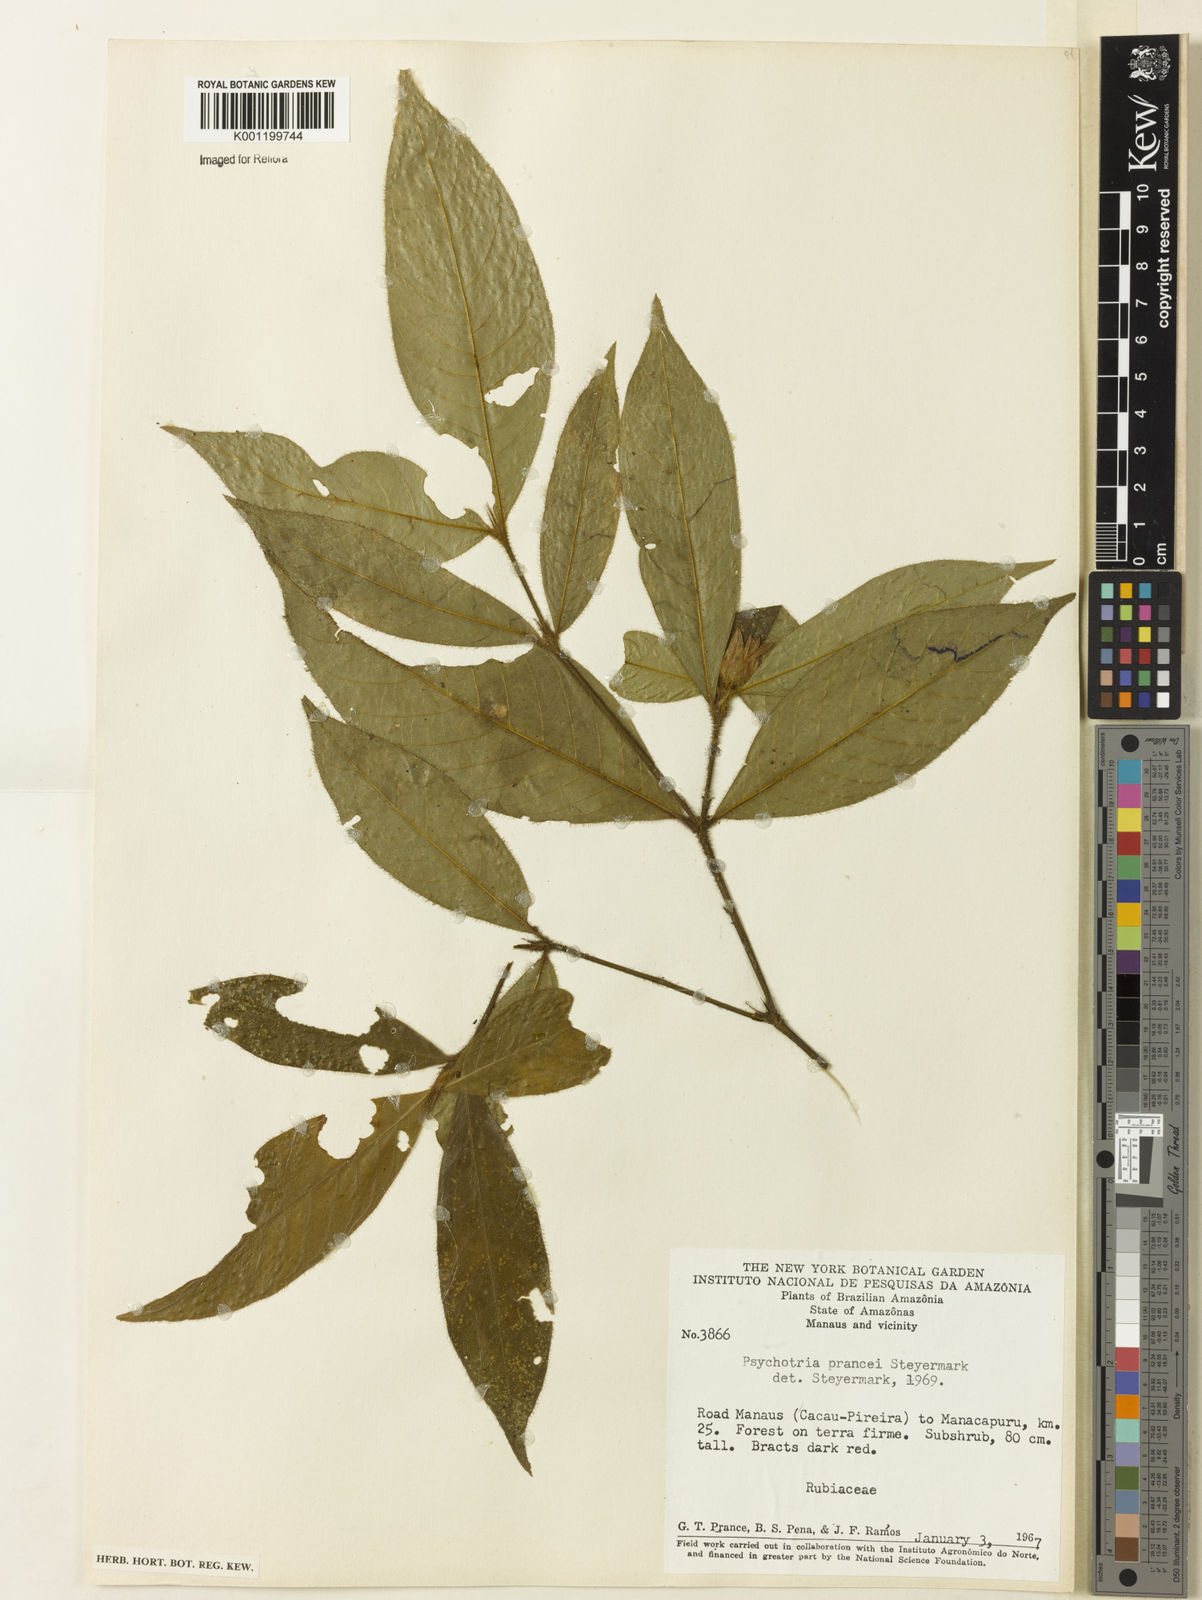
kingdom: Plantae
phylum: Tracheophyta
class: Magnoliopsida
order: Gentianales
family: Rubiaceae
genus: Palicourea
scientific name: Palicourea prancei
